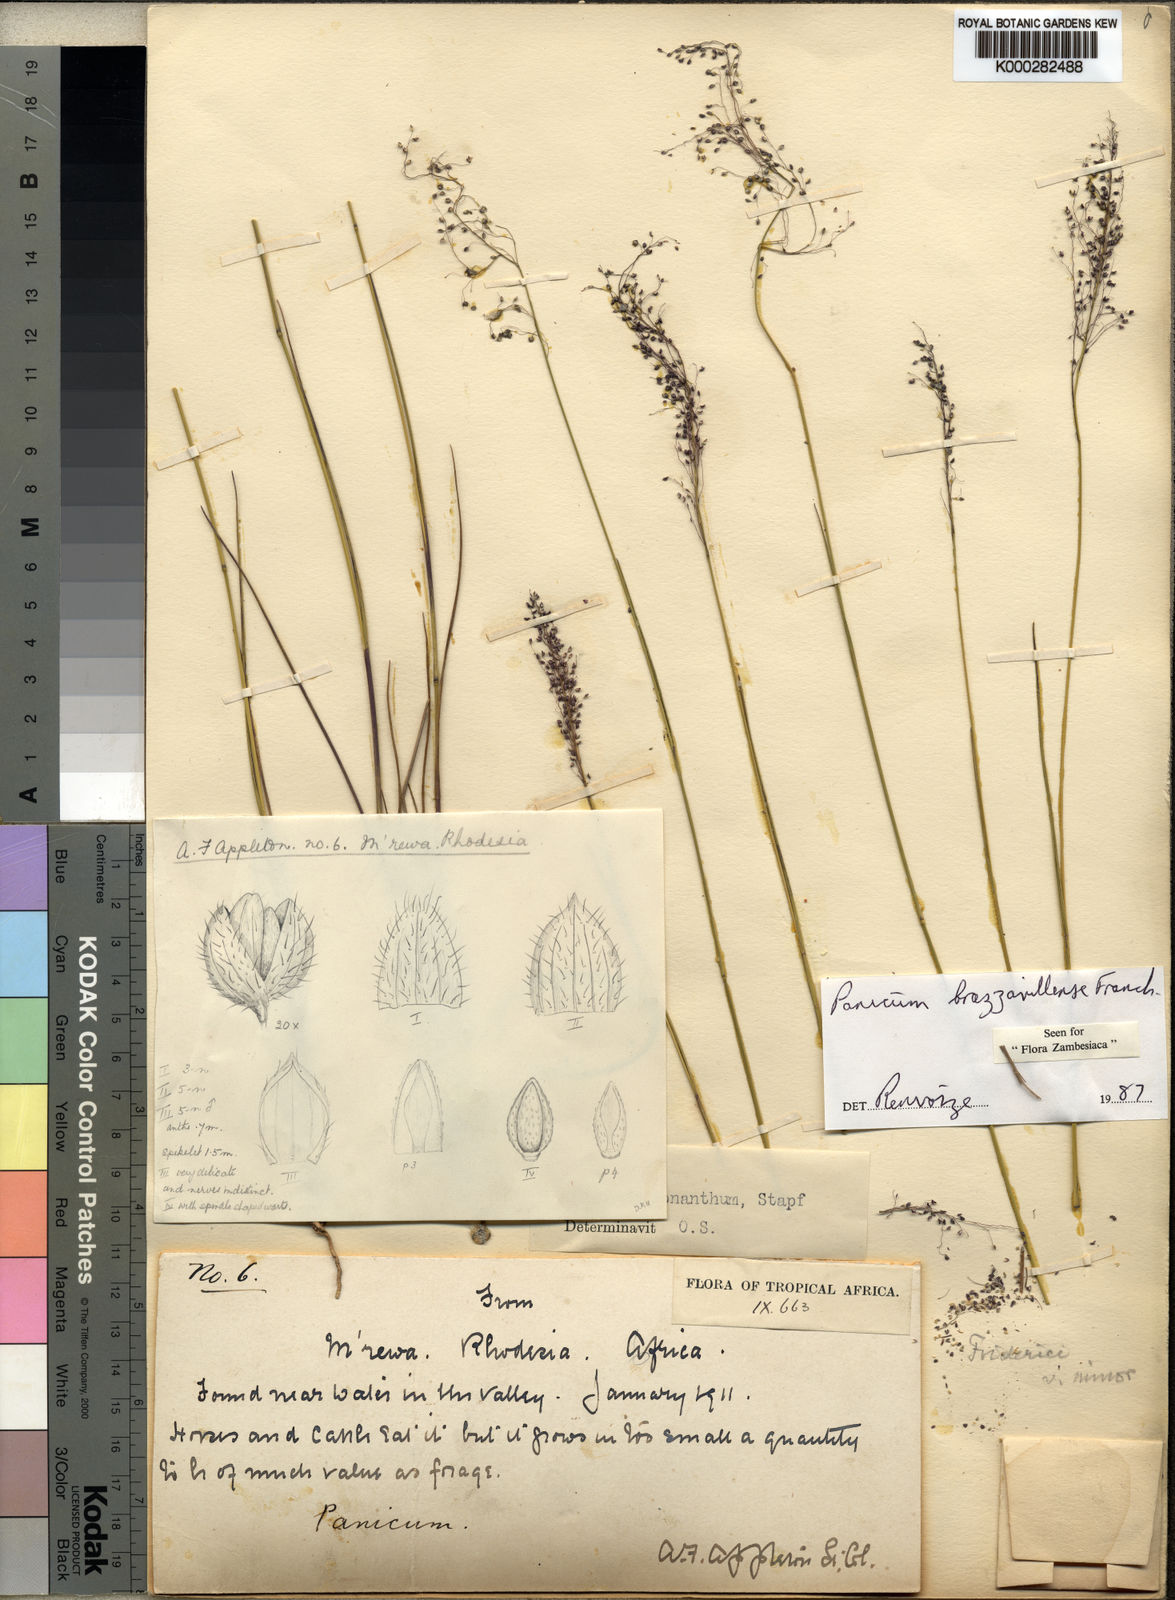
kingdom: Plantae
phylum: Tracheophyta
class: Liliopsida
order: Poales
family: Poaceae
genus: Trichanthecium
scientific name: Trichanthecium brazzavillense
